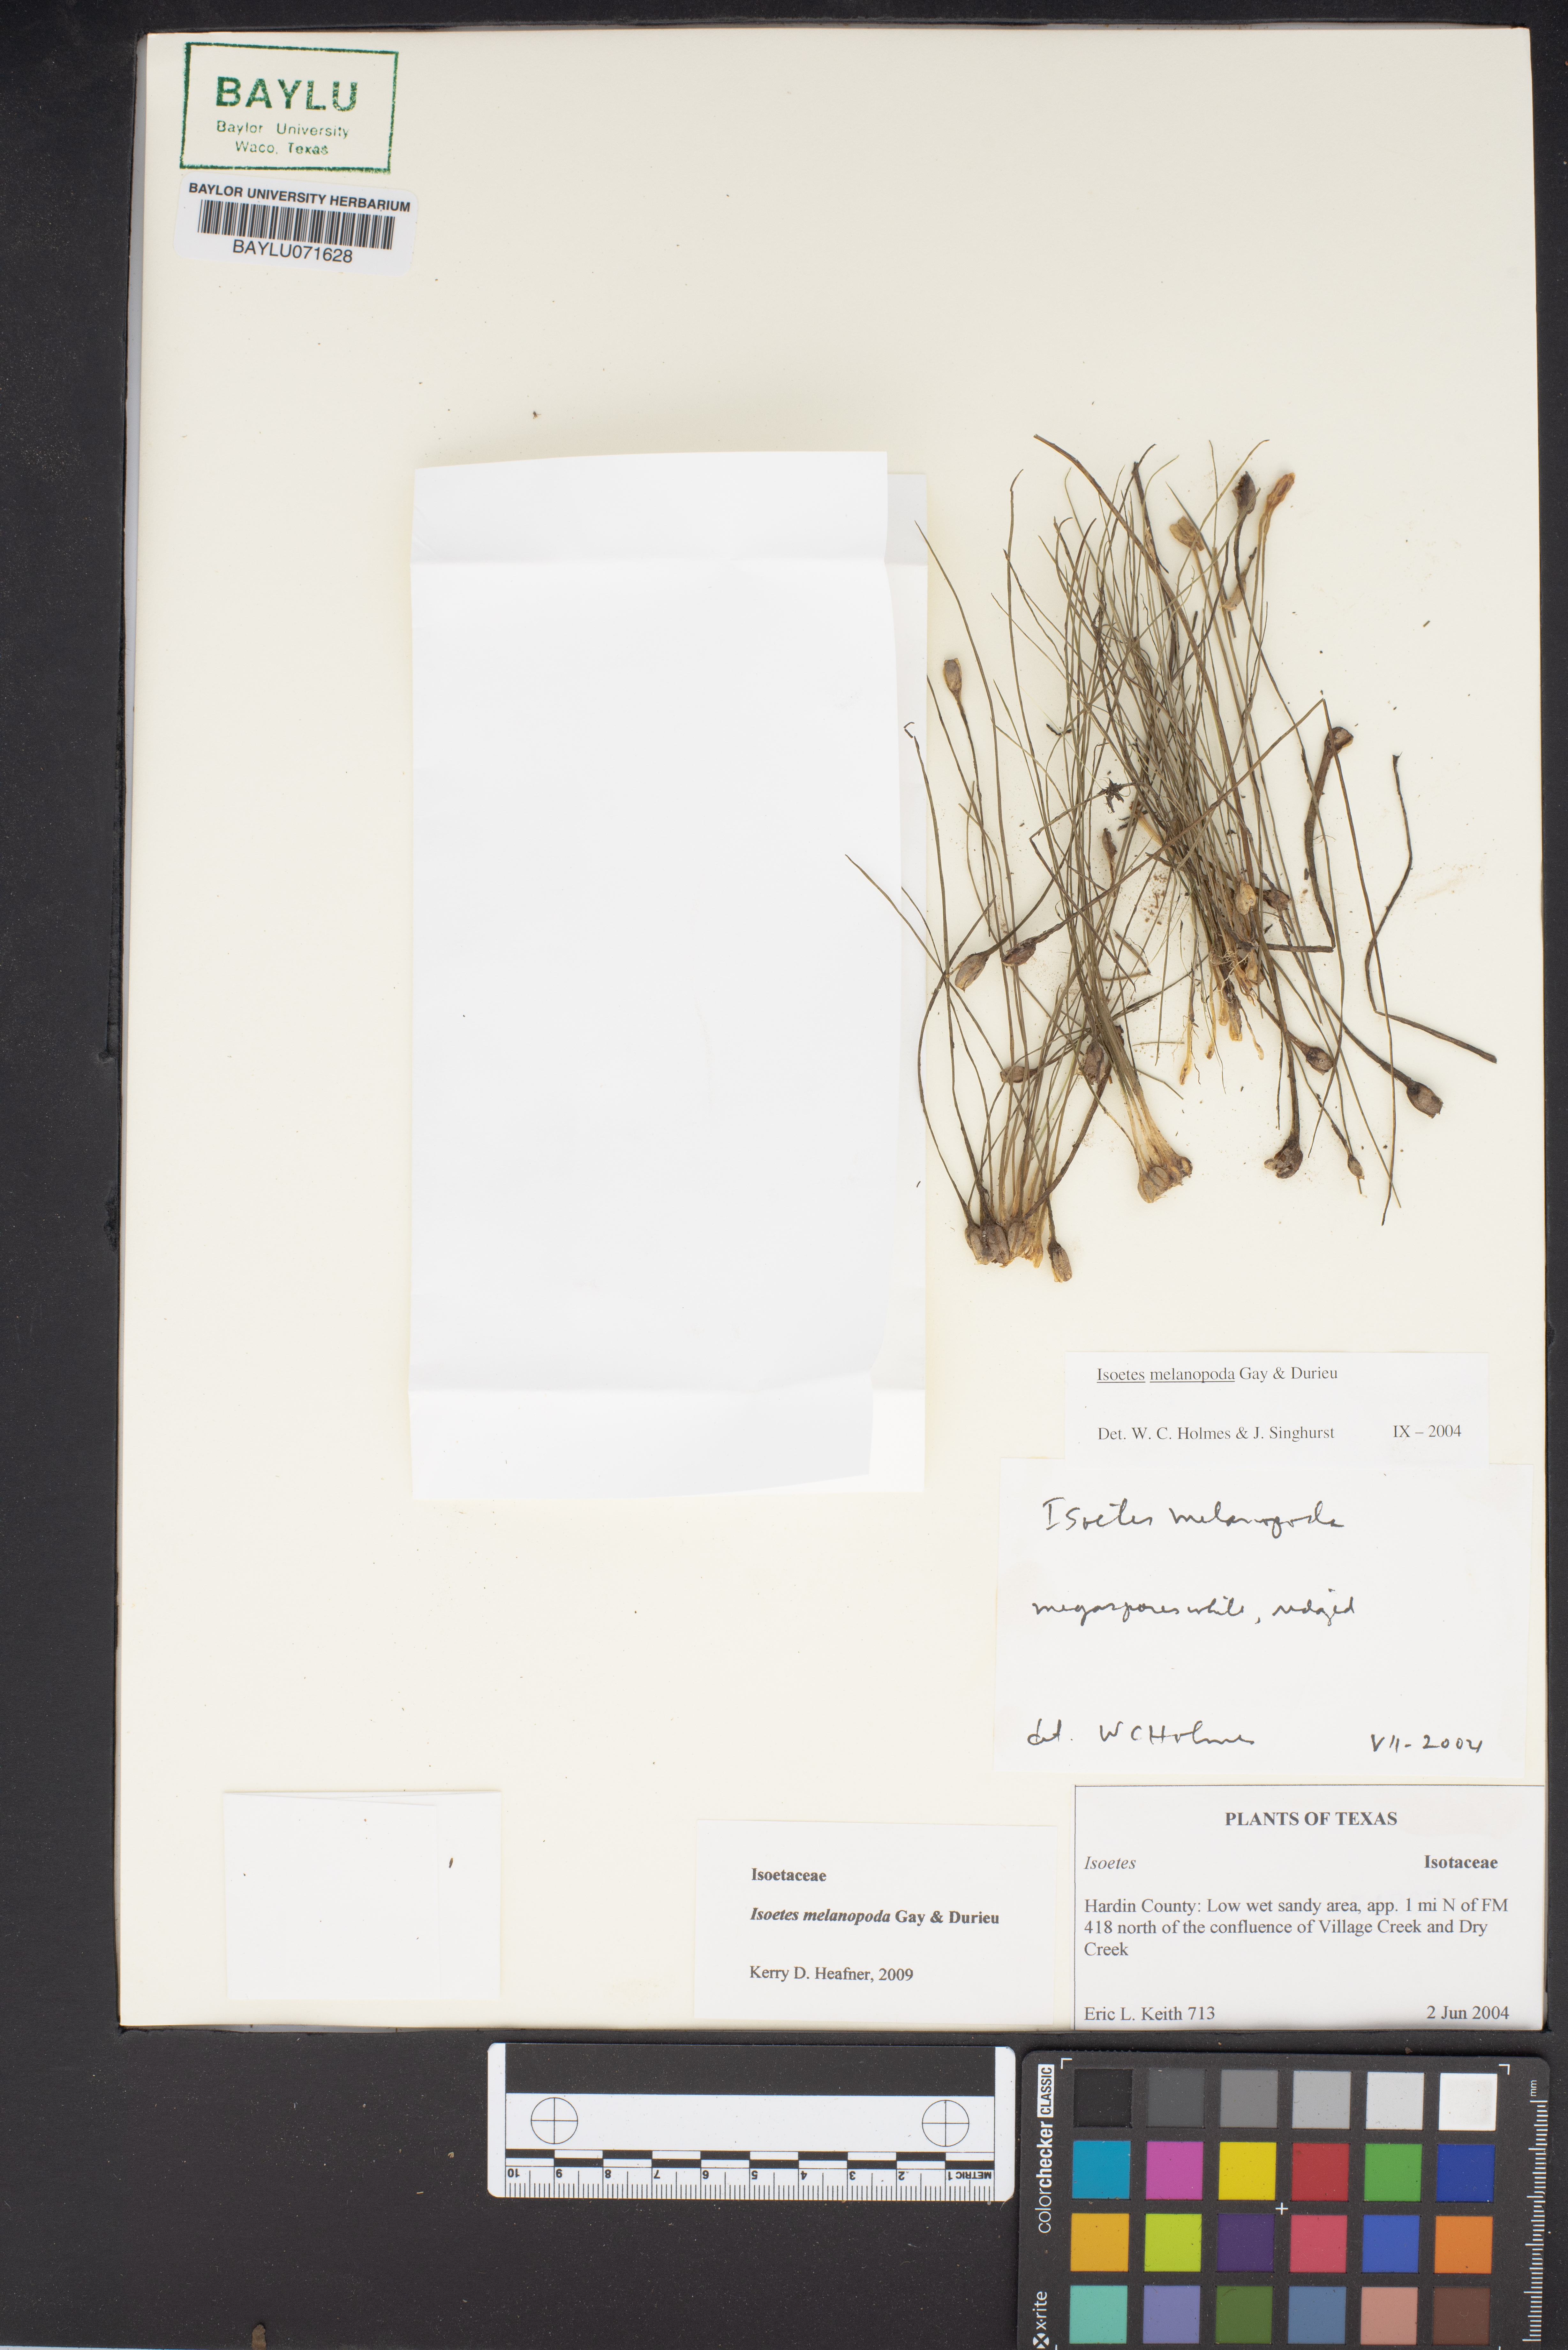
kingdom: Plantae
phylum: Tracheophyta
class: Lycopodiopsida
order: Isoetales
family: Isoetaceae
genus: Isoetes
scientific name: Isoetes melanopoda
